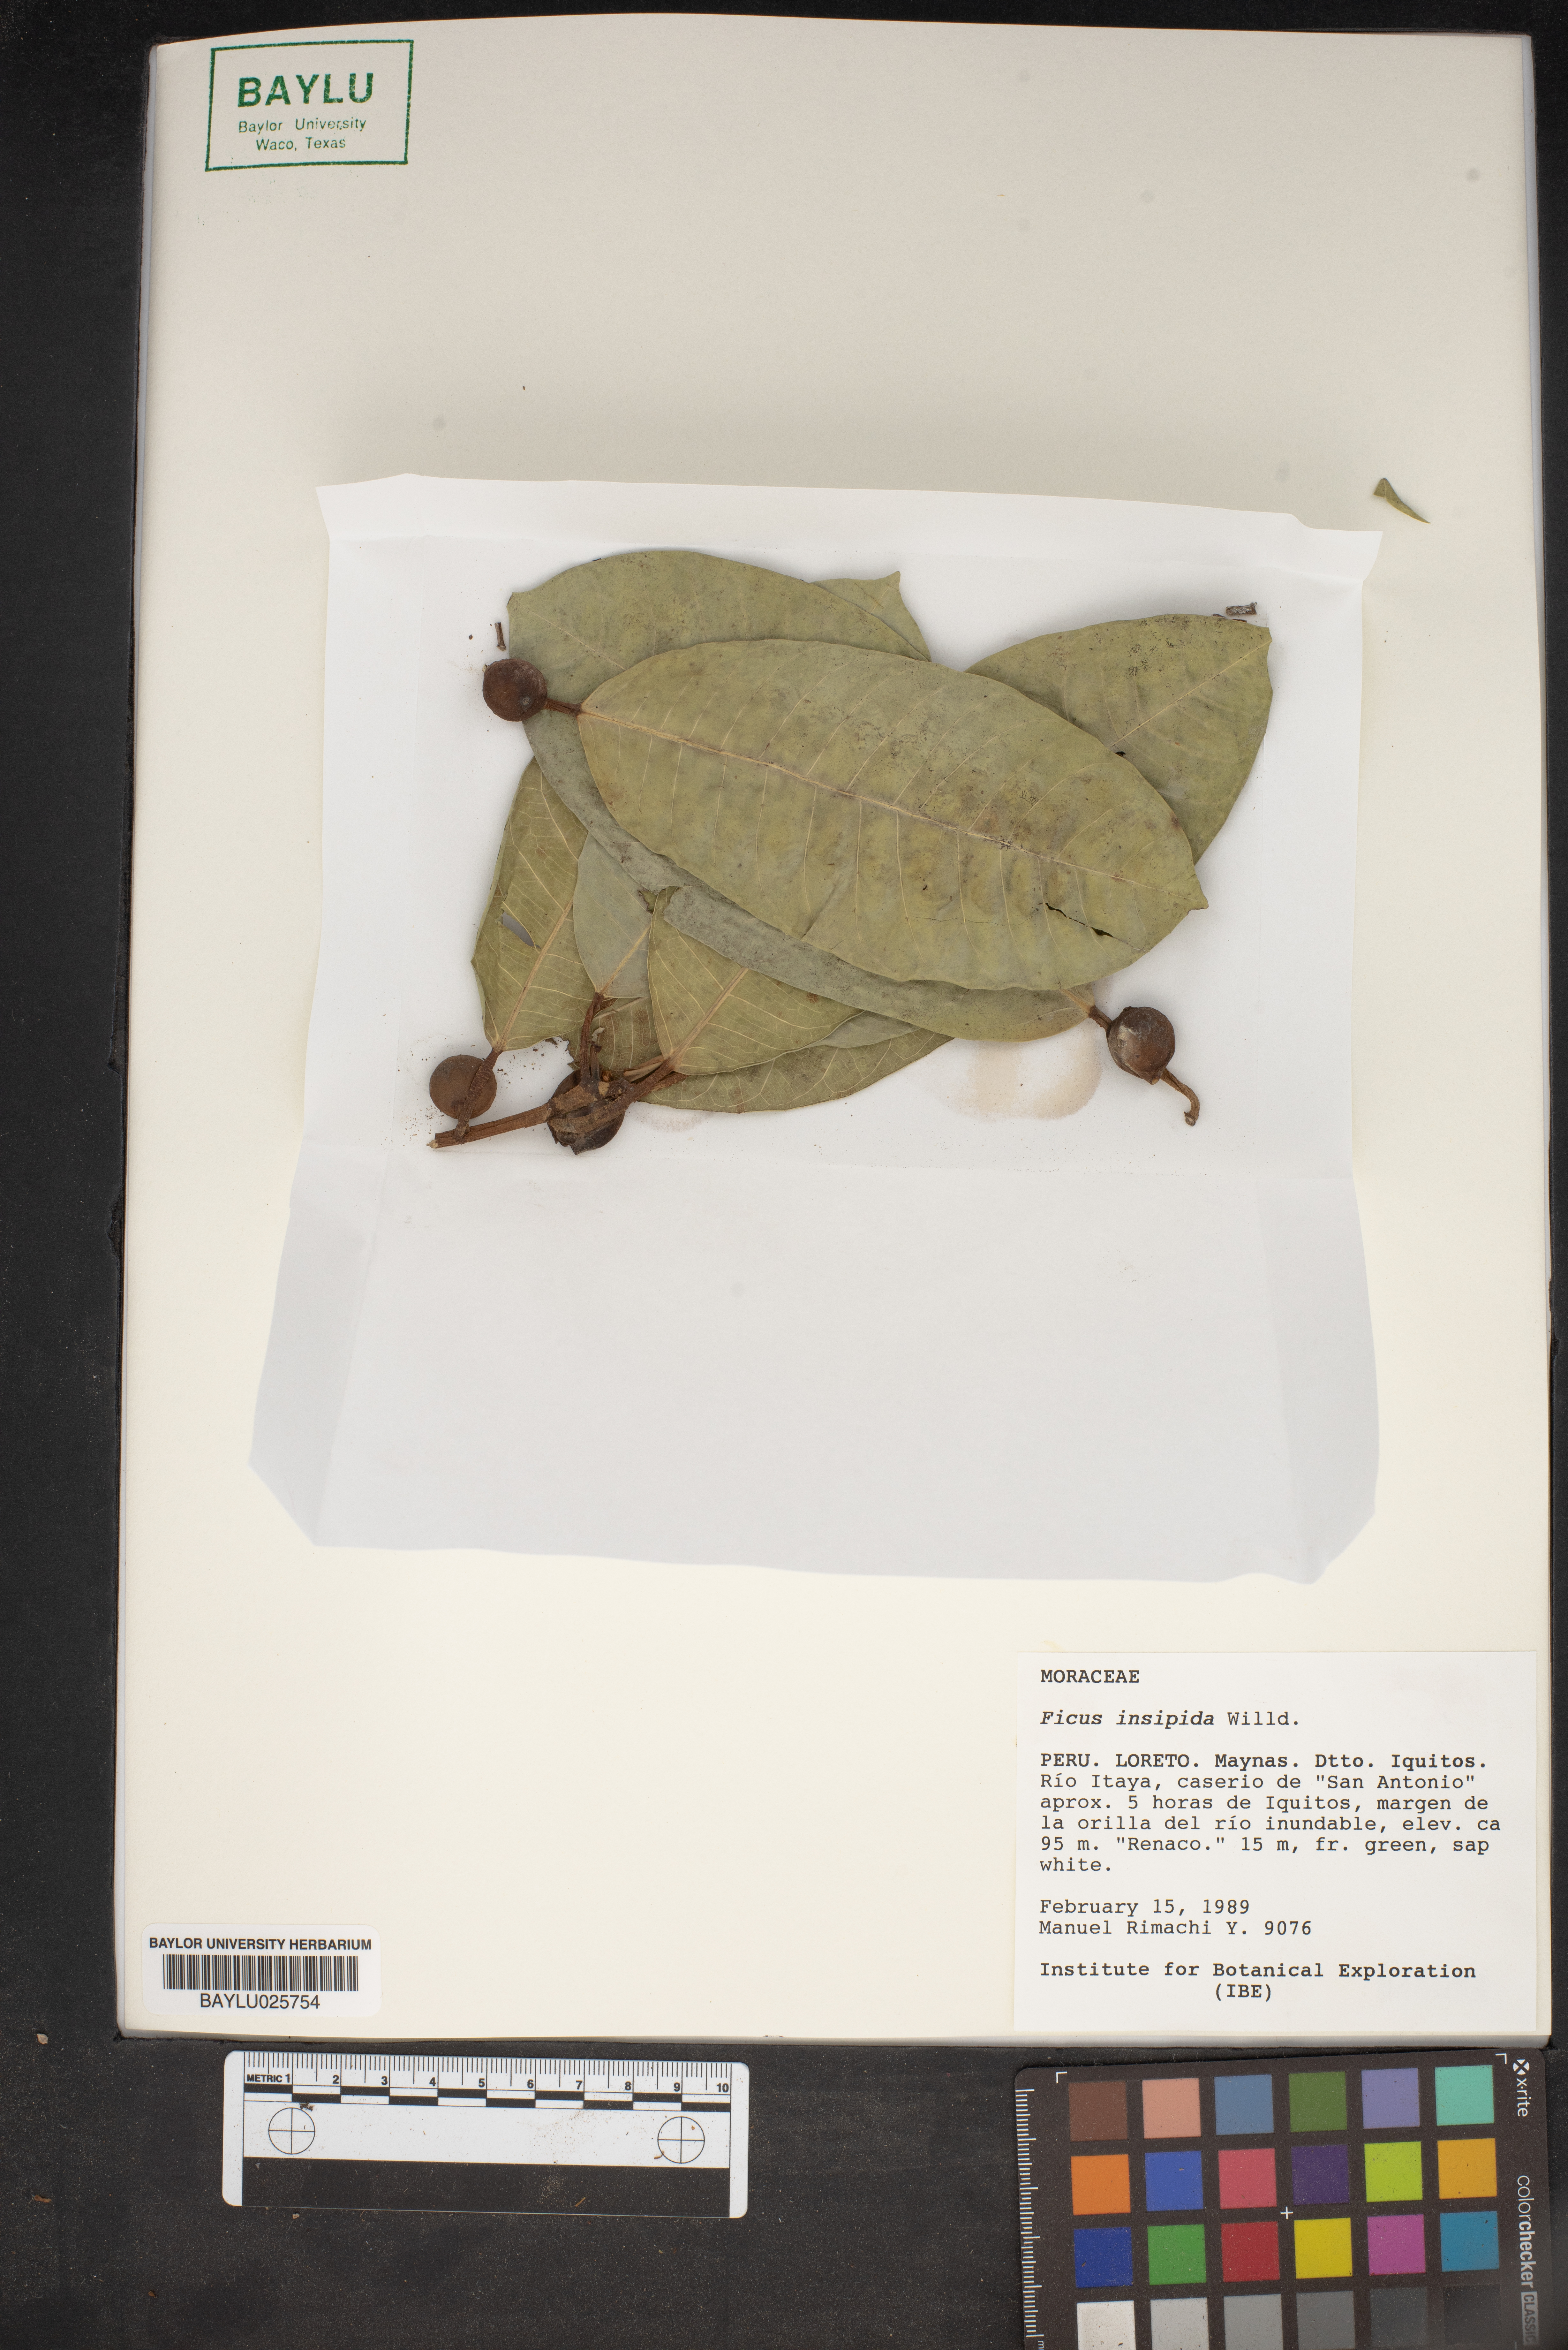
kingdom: Plantae
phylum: Tracheophyta
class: Magnoliopsida
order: Rosales
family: Moraceae
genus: Ficus
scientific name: Ficus insipida
